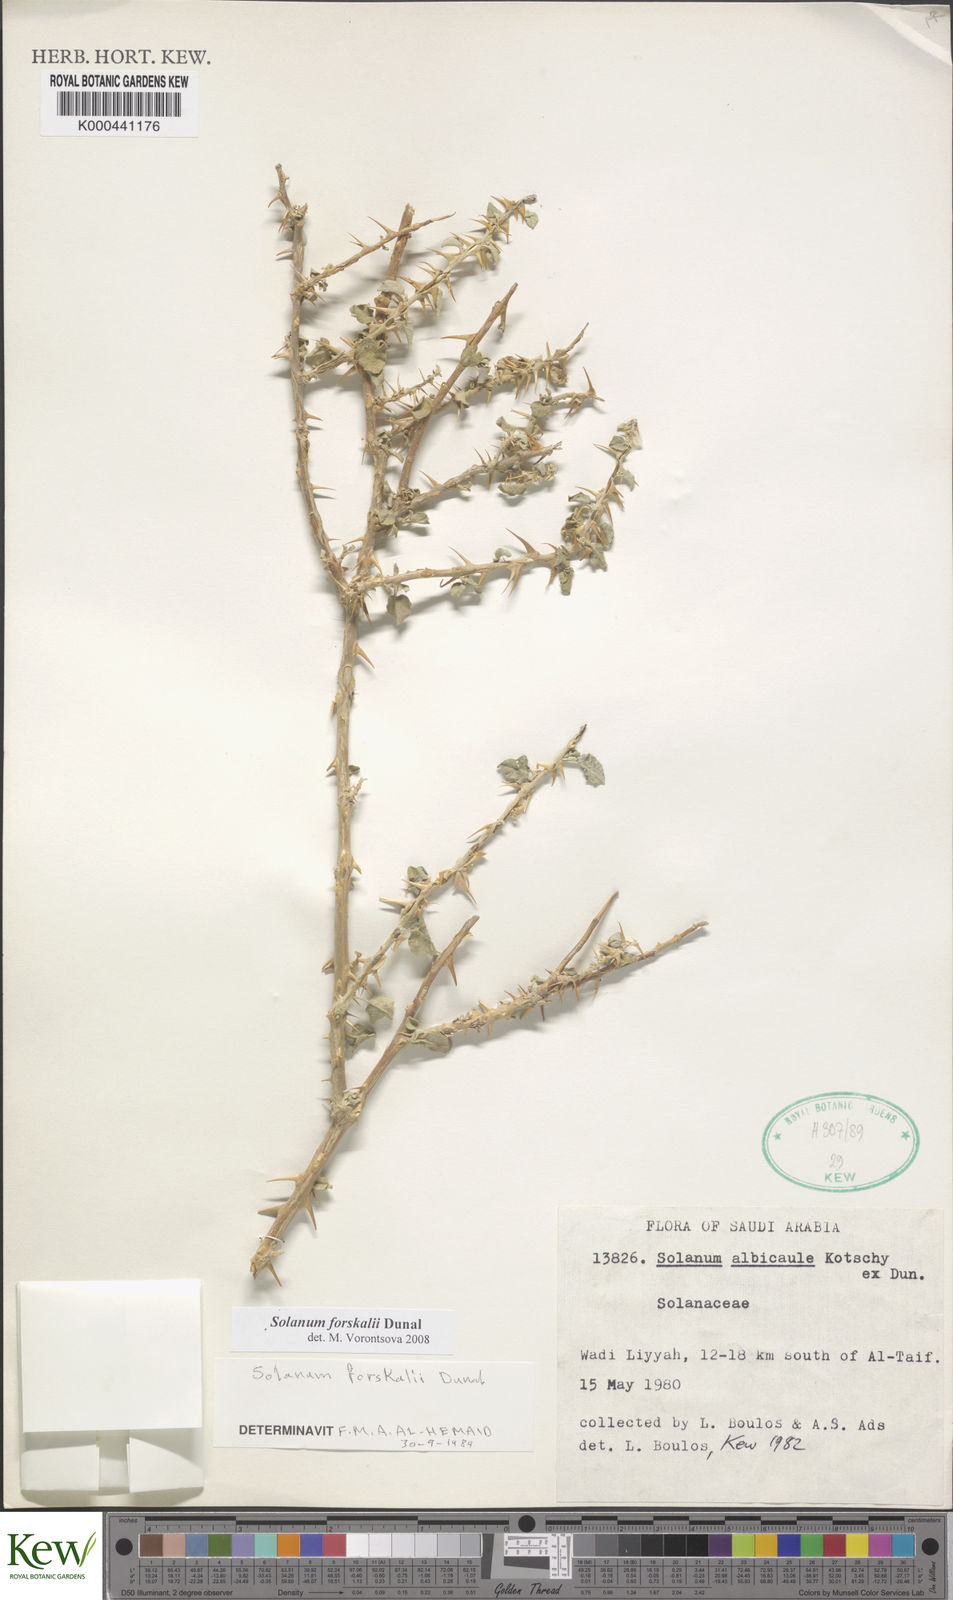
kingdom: Plantae
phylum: Tracheophyta
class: Magnoliopsida
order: Solanales
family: Solanaceae
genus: Solanum
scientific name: Solanum
